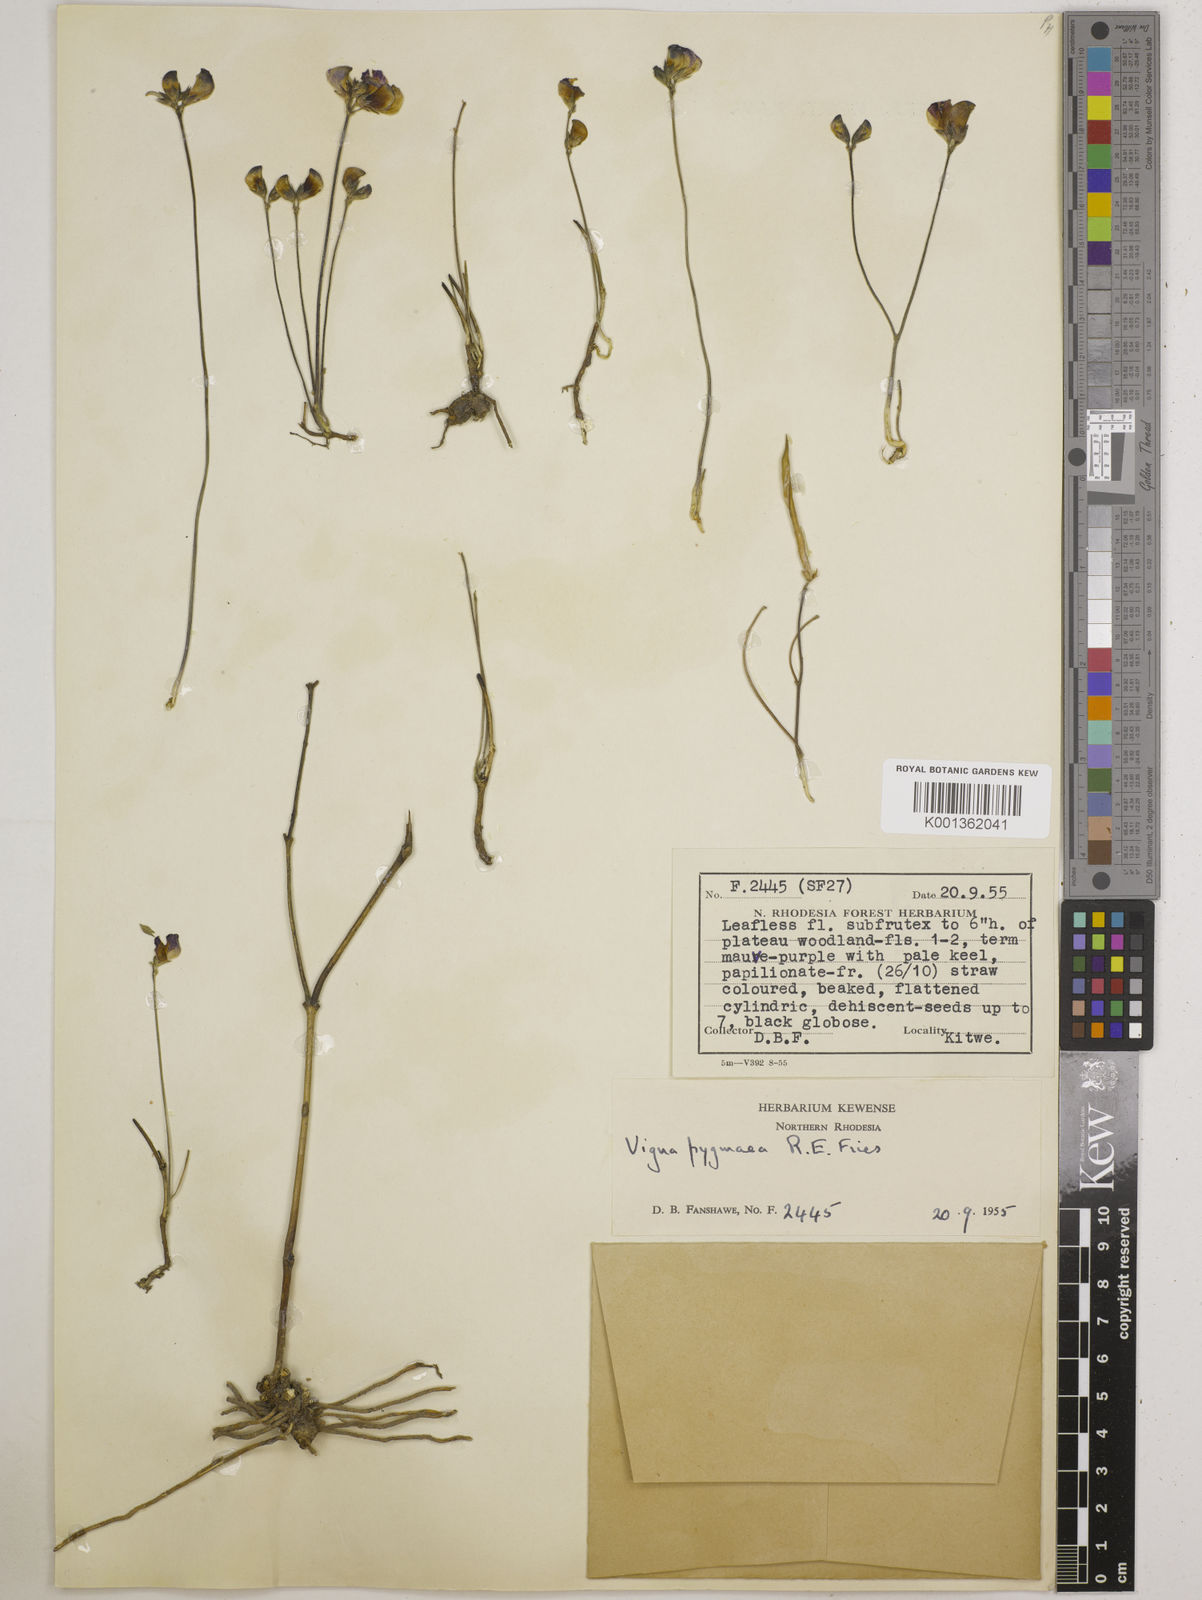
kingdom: Plantae
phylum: Tracheophyta
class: Magnoliopsida
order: Fabales
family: Fabaceae
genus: Vigna
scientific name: Vigna pygmaea
